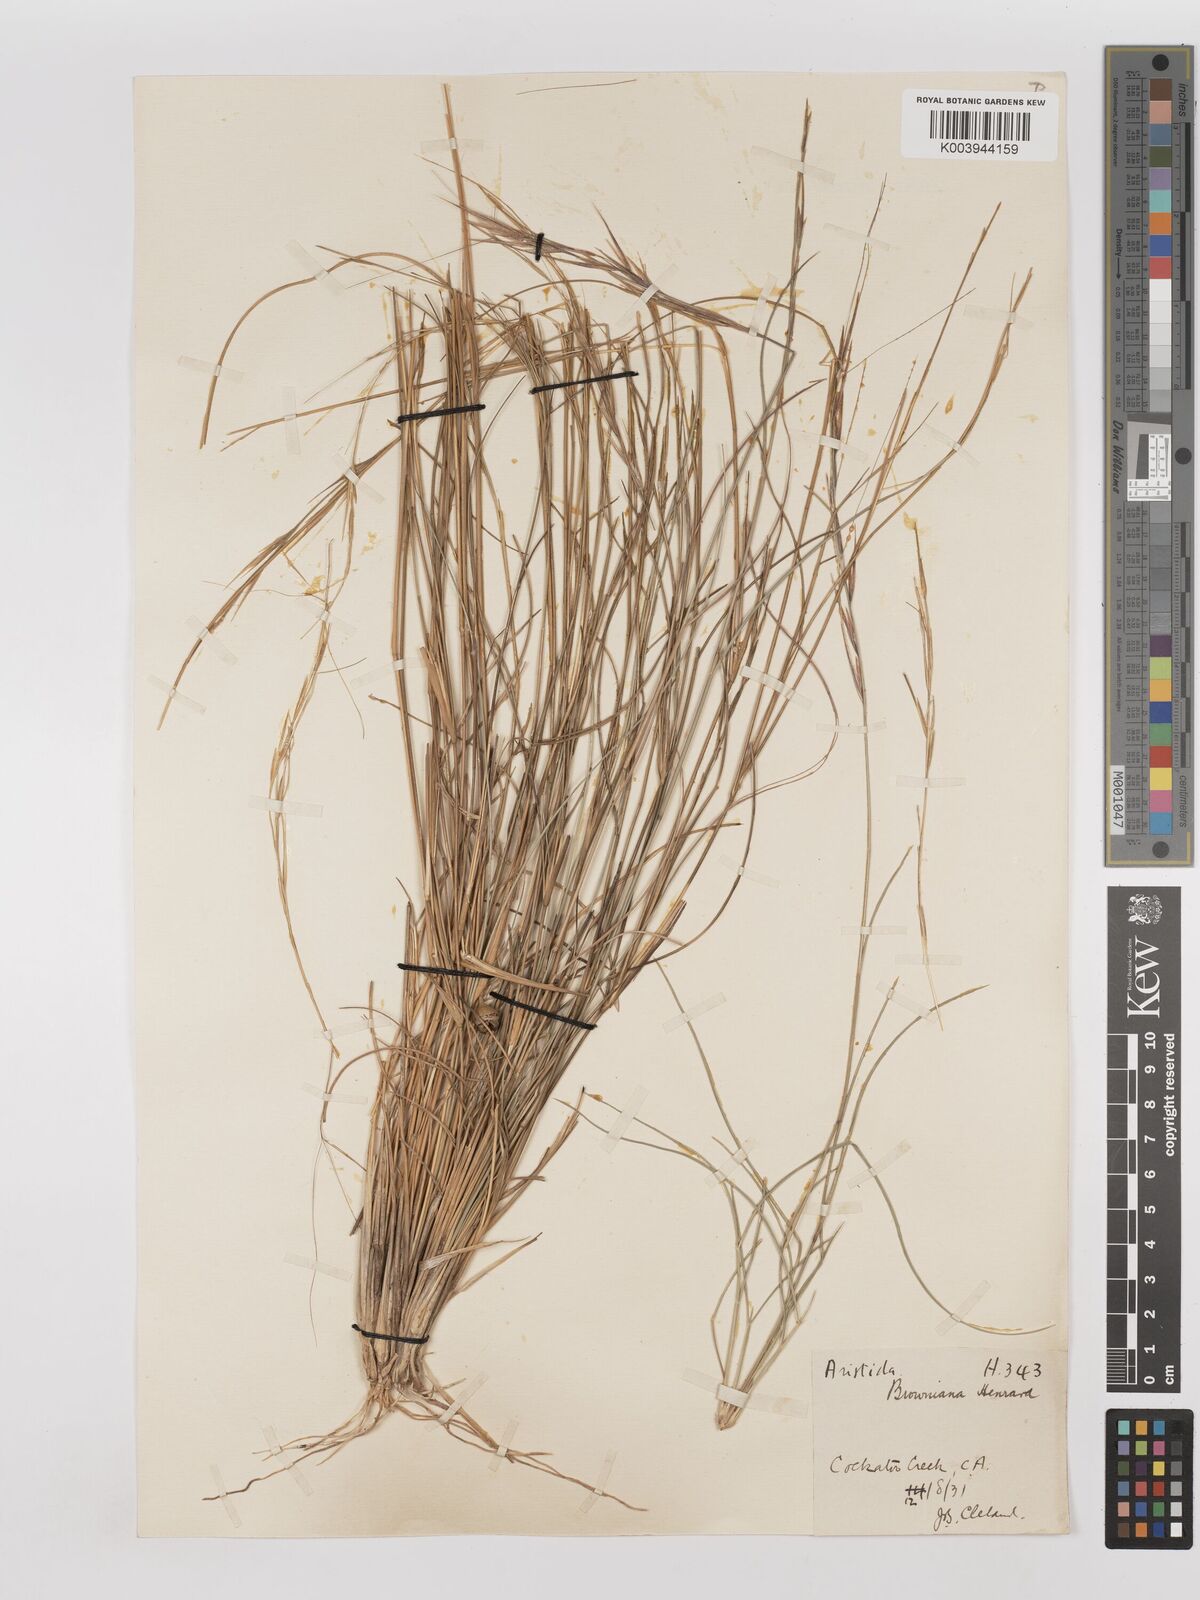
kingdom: Plantae
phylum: Tracheophyta
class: Liliopsida
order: Poales
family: Poaceae
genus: Aristida
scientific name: Aristida holathera
